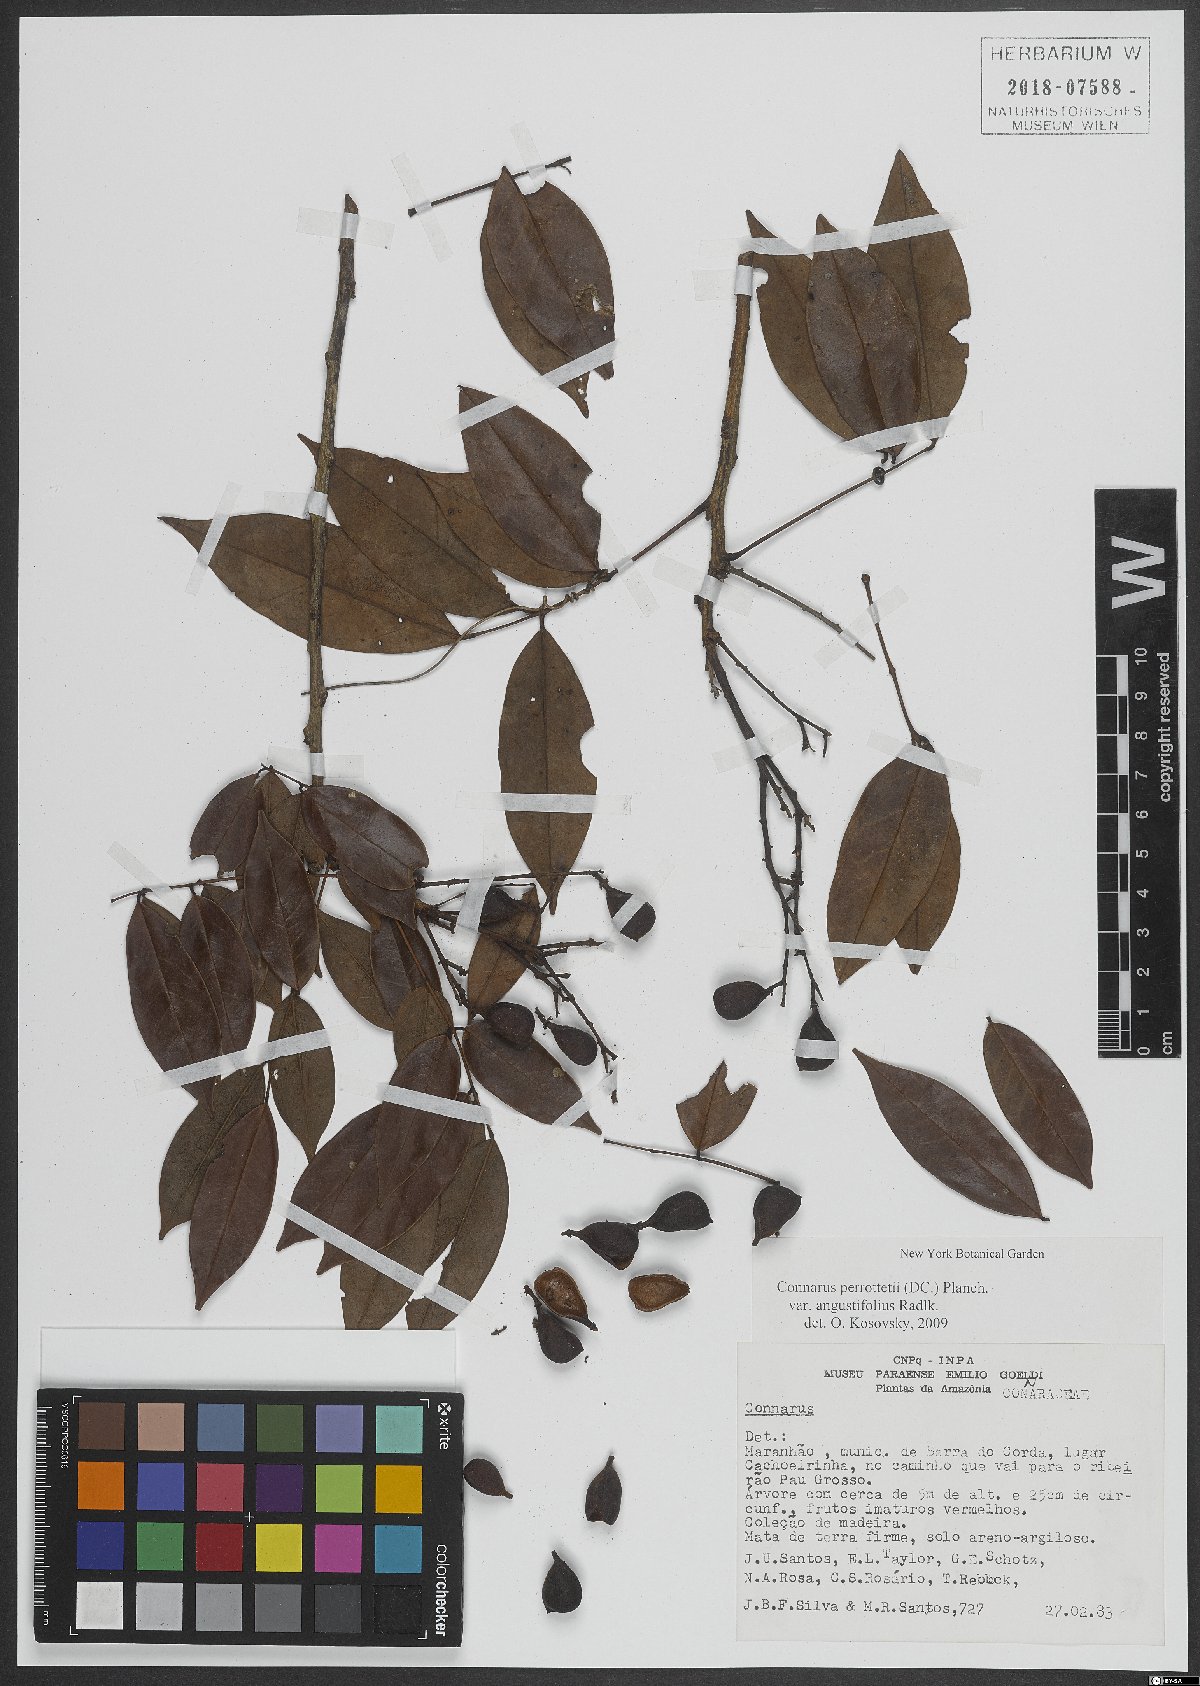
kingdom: Plantae
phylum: Tracheophyta
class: Magnoliopsida
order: Oxalidales
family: Connaraceae
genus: Connarus
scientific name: Connarus perrottetii
